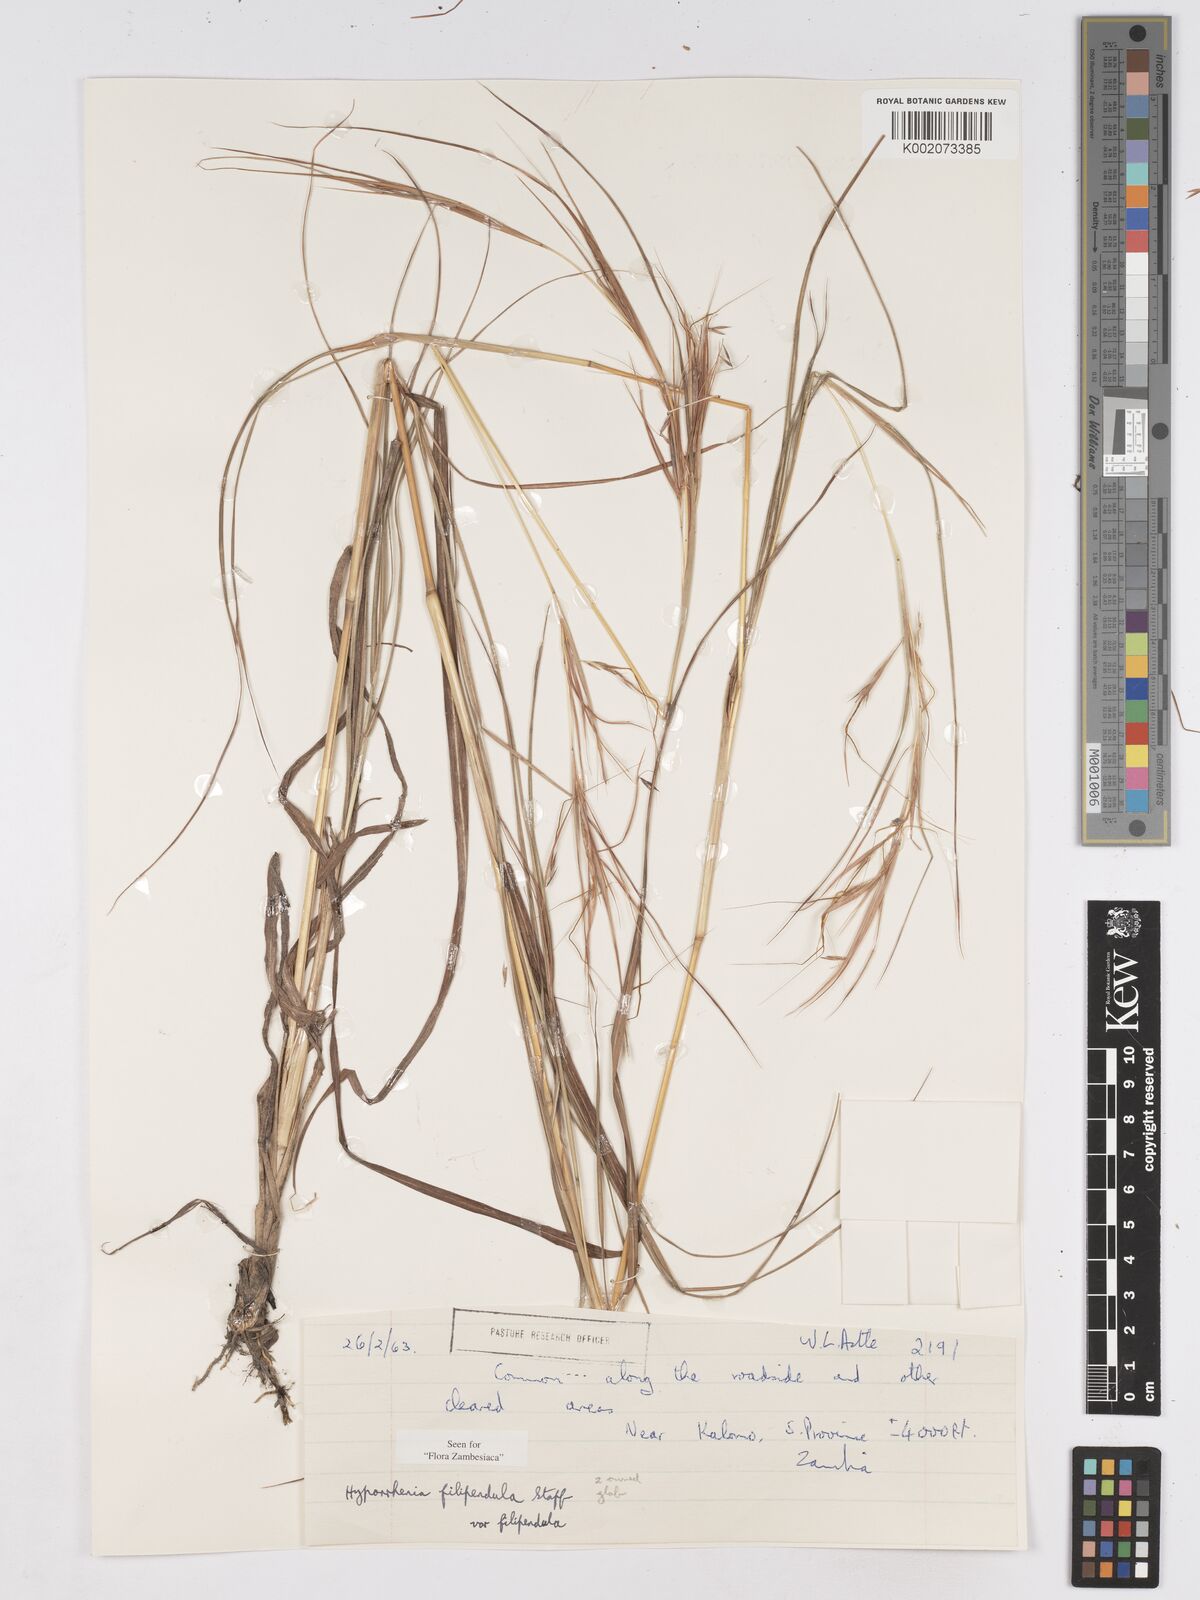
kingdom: Plantae
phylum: Tracheophyta
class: Liliopsida
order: Poales
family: Poaceae
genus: Hyparrhenia
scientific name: Hyparrhenia filipendula
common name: Tambookie grass
